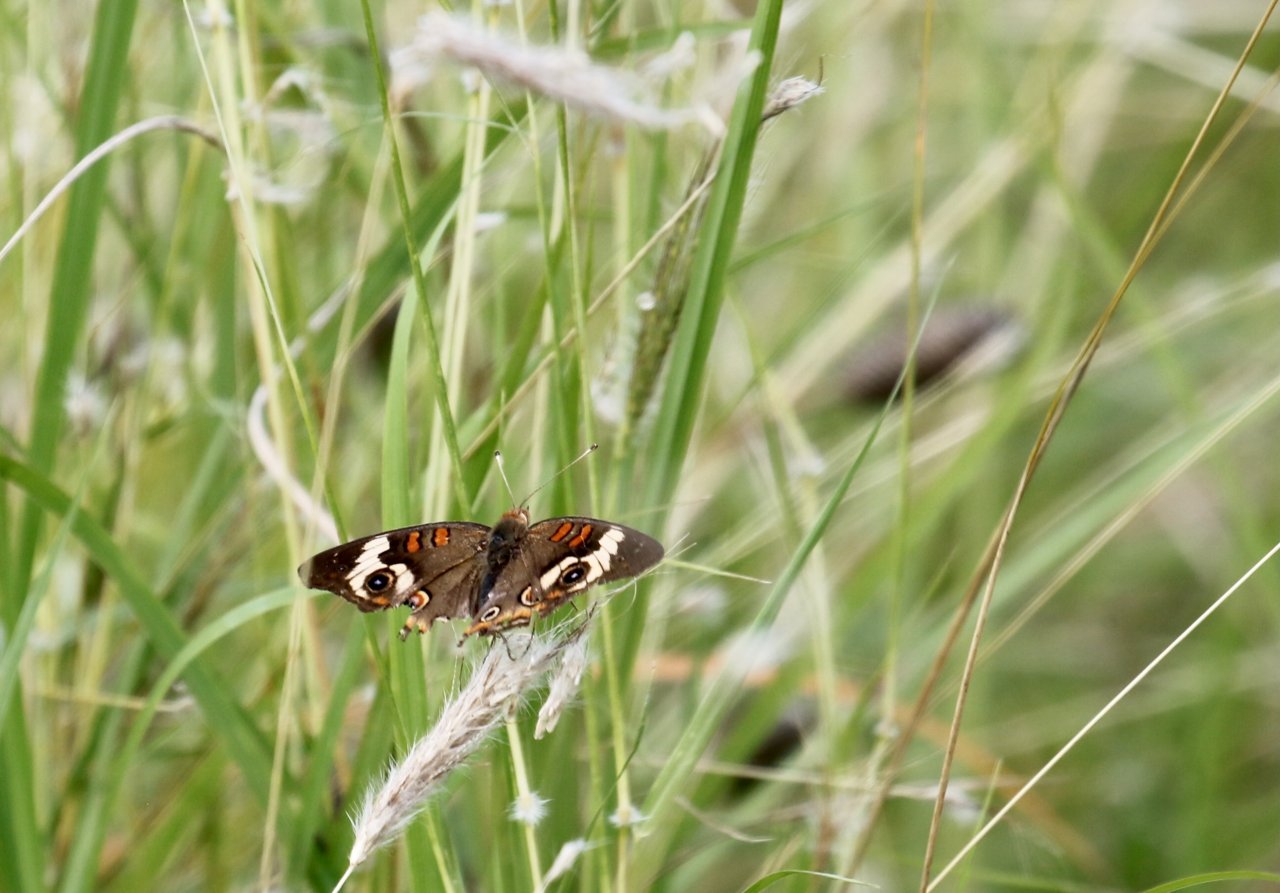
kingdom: Animalia
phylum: Arthropoda
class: Insecta
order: Lepidoptera
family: Nymphalidae
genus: Junonia
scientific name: Junonia coenia
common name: Common Buckeye
